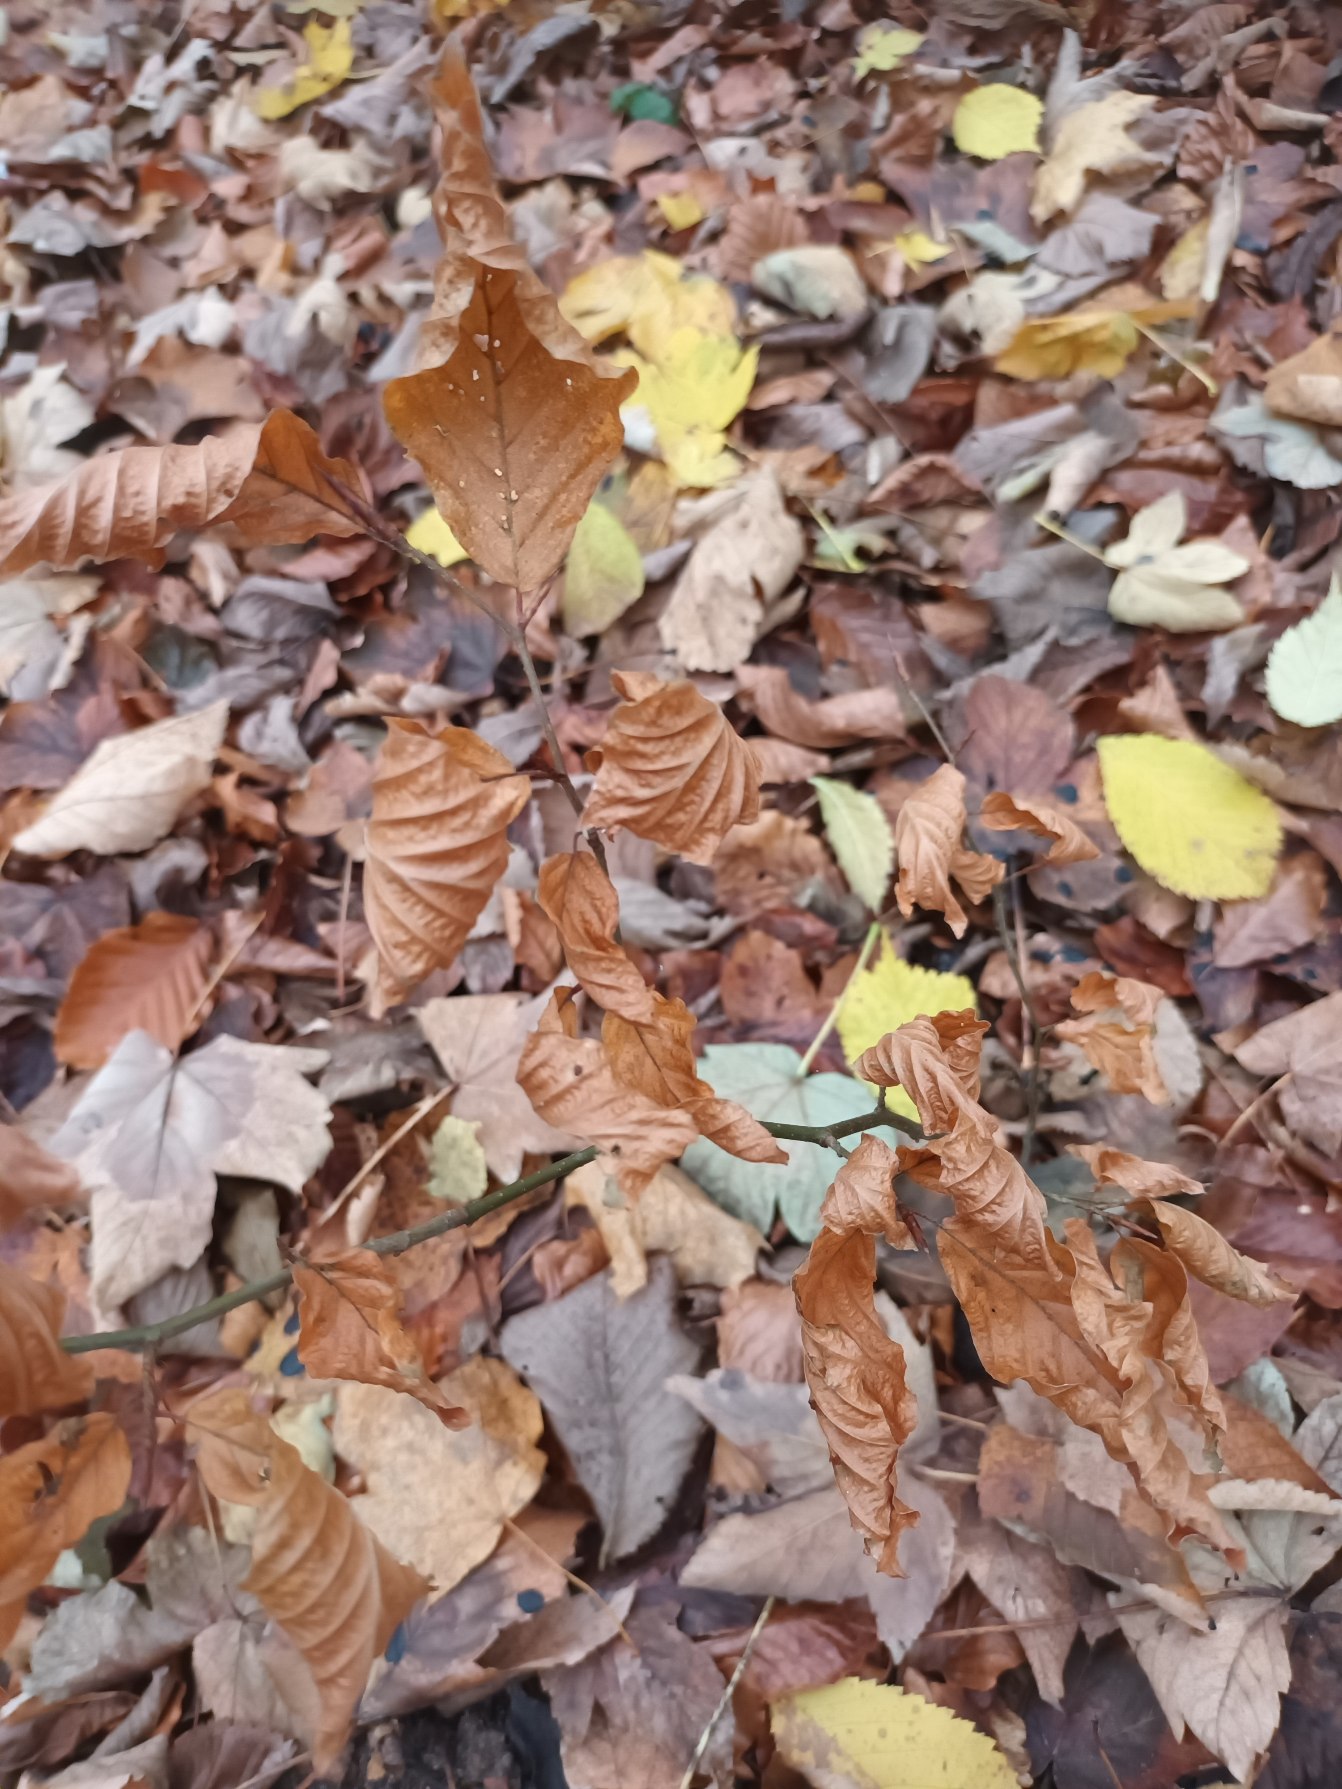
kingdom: Plantae
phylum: Tracheophyta
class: Magnoliopsida
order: Fagales
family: Fagaceae
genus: Fagus
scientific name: Fagus sylvatica
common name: Bøg
